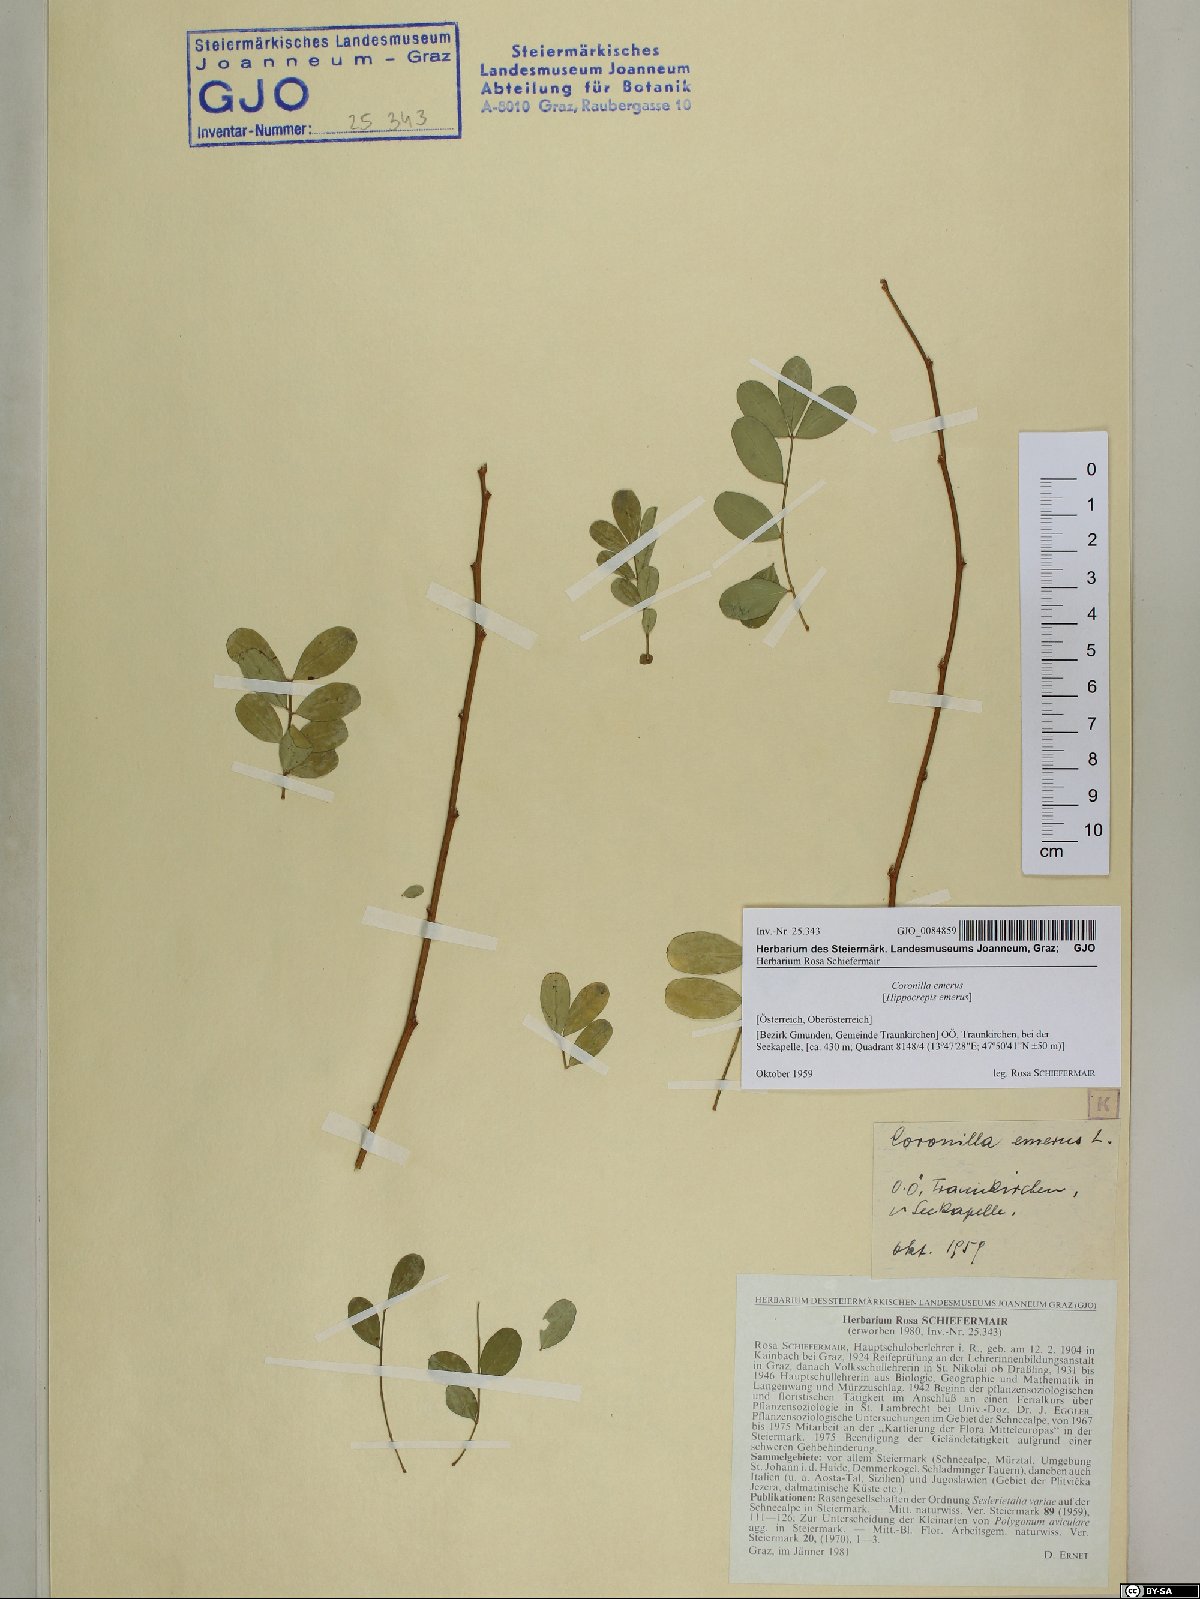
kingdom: Plantae
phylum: Tracheophyta
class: Magnoliopsida
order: Fabales
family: Fabaceae
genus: Hippocrepis
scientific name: Hippocrepis emerus
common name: Scorpion senna
